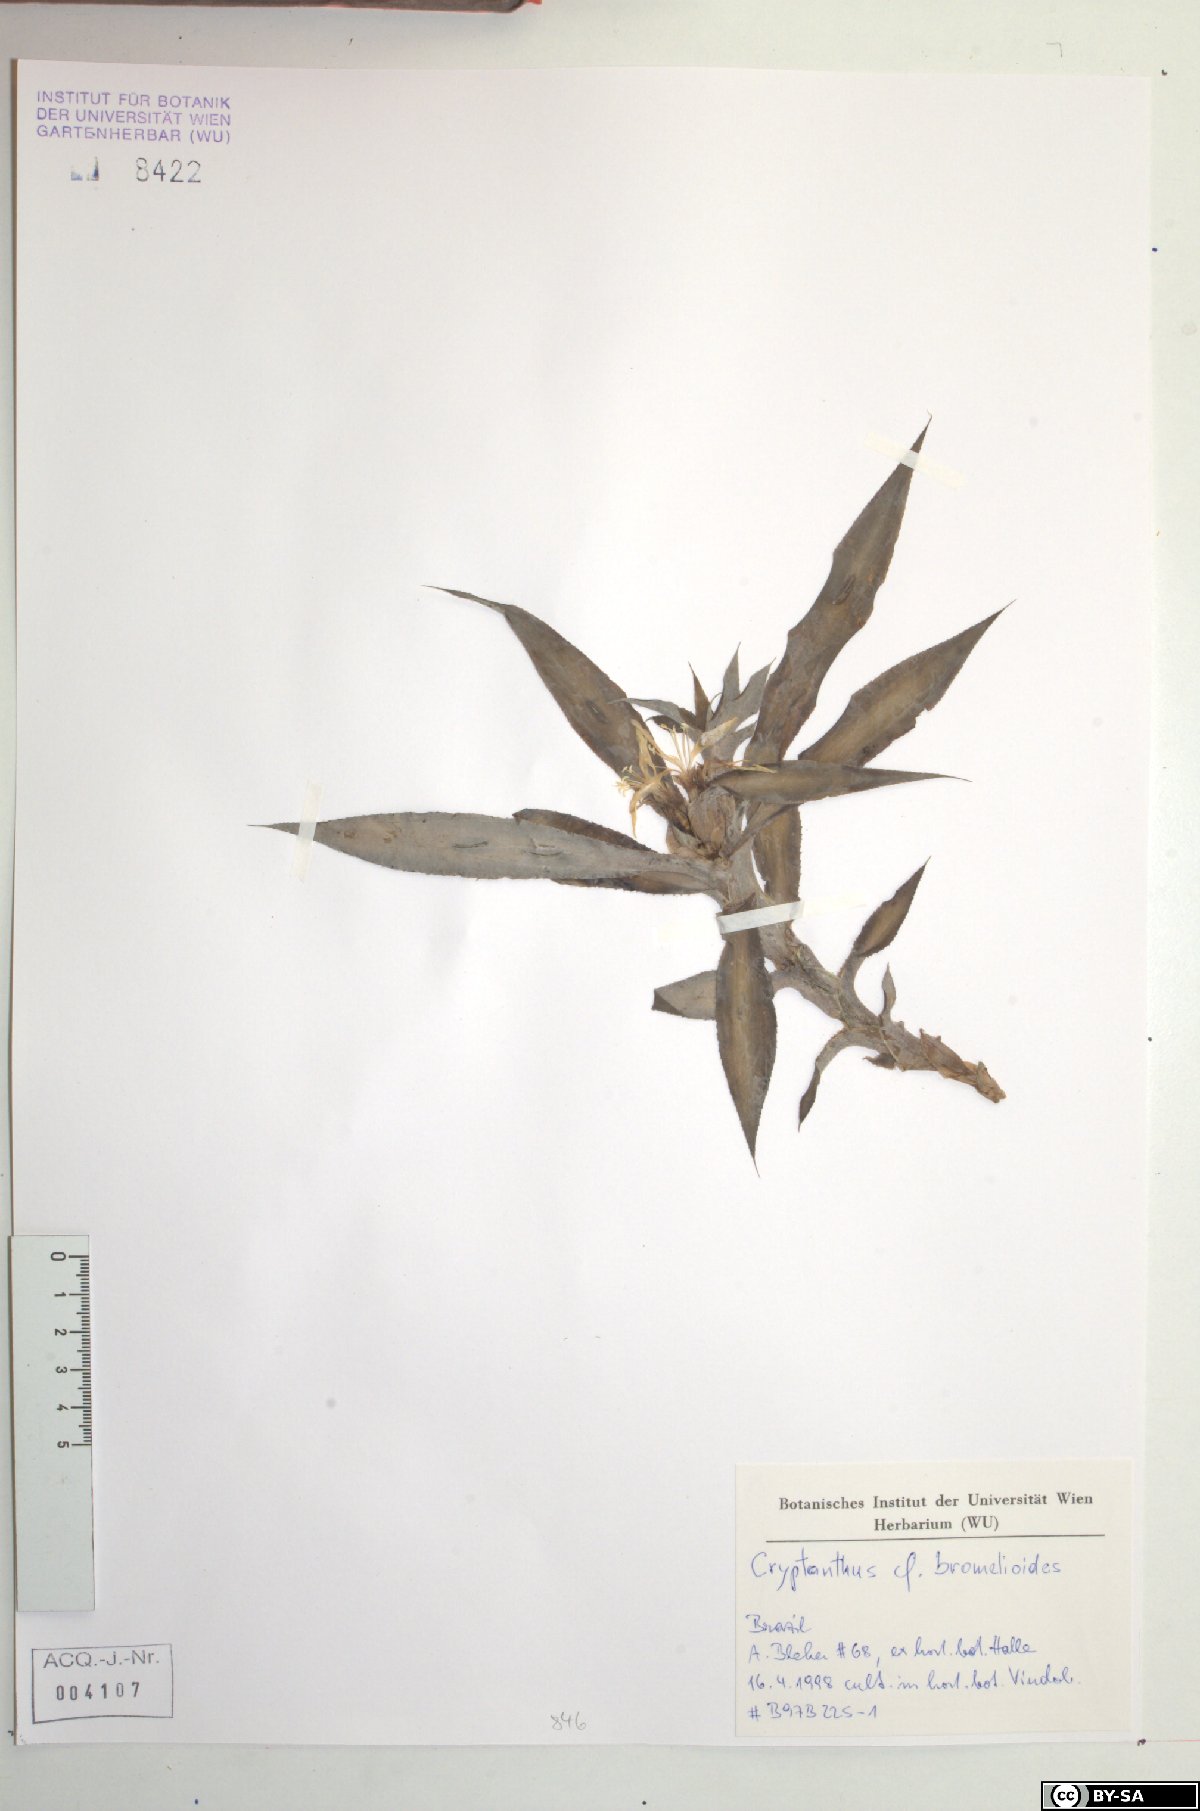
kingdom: Plantae
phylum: Tracheophyta
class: Liliopsida
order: Poales
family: Bromeliaceae
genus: Cryptanthus
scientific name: Cryptanthus bromelioides
